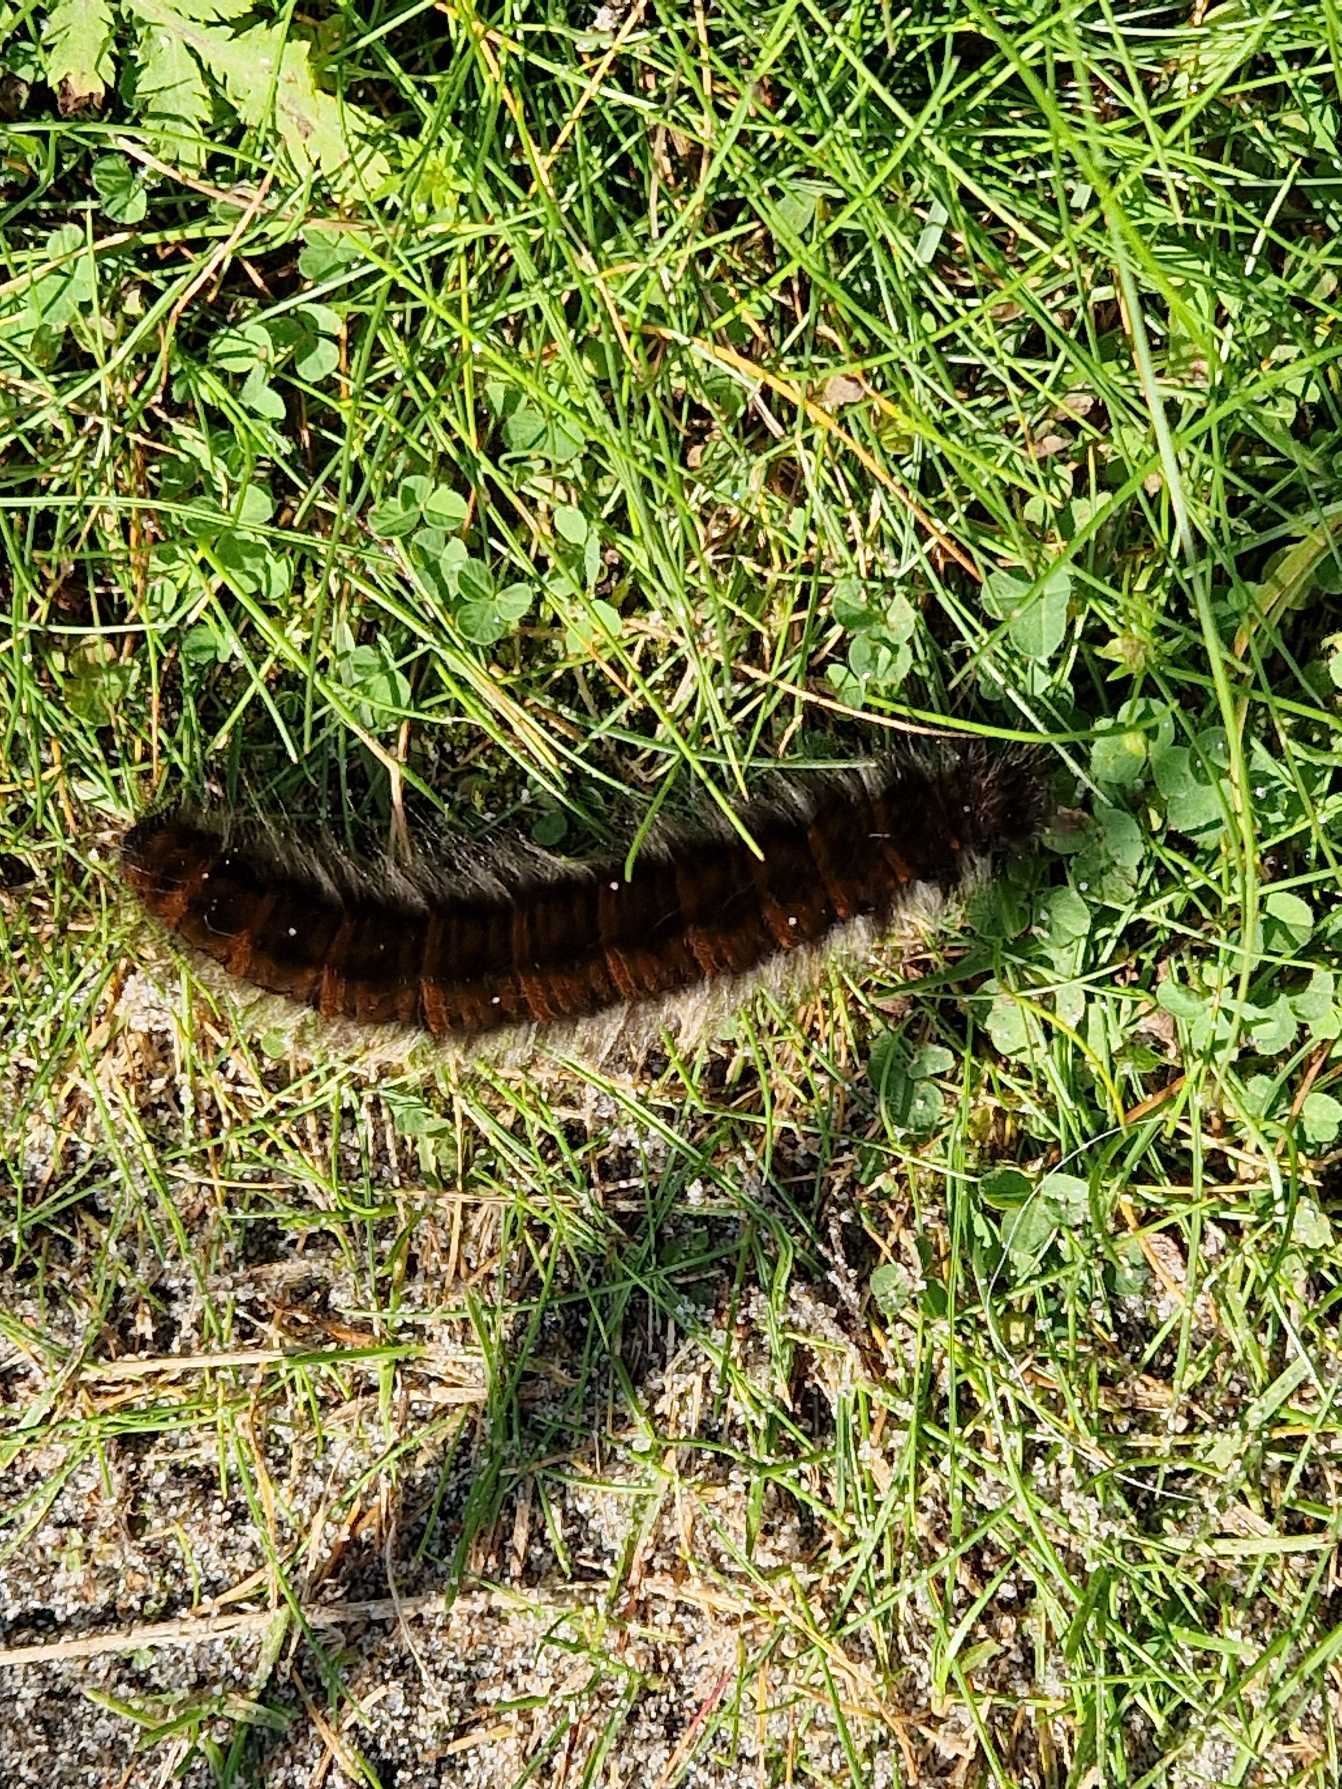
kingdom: Animalia
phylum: Arthropoda
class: Insecta
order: Lepidoptera
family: Lasiocampidae
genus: Macrothylacia
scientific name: Macrothylacia rubi
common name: Brombærspinder
